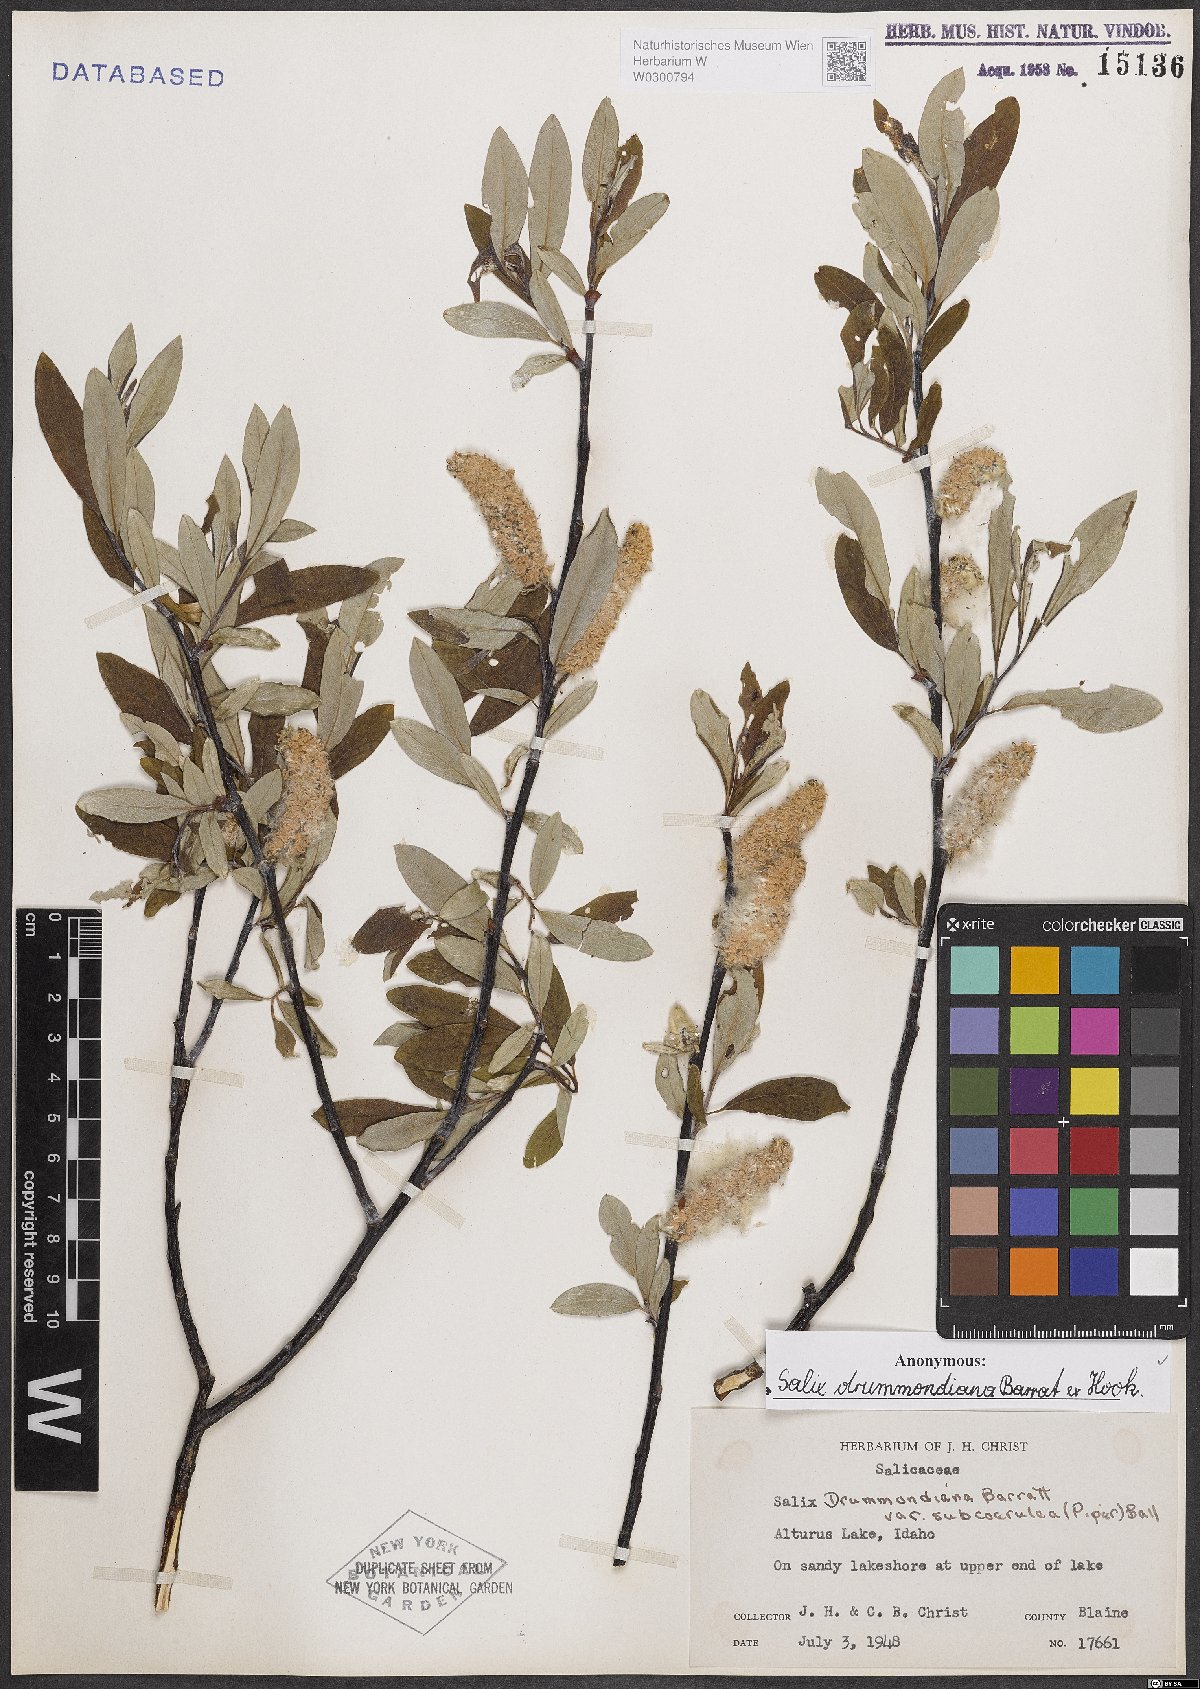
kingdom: Plantae
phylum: Tracheophyta
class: Magnoliopsida
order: Malpighiales
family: Salicaceae
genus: Salix
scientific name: Salix drummondiana
